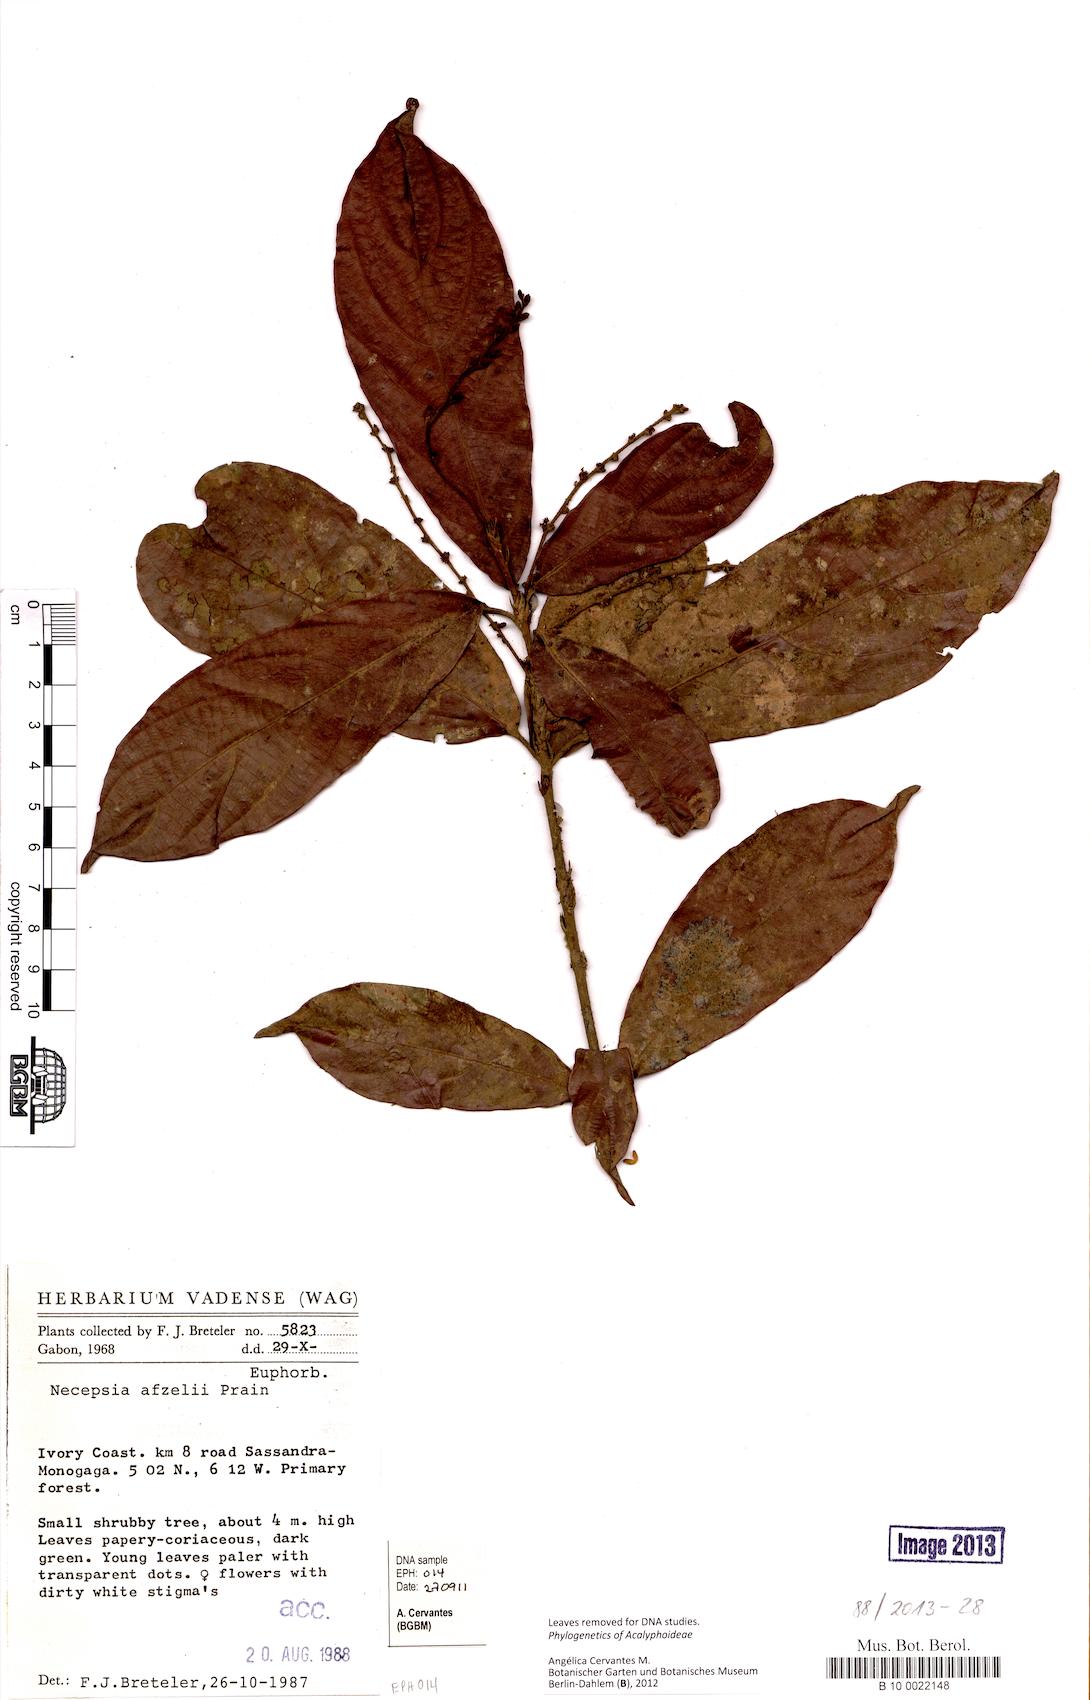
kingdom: Plantae
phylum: Tracheophyta
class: Magnoliopsida
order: Malpighiales
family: Euphorbiaceae
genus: Necepsia
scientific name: Necepsia afzelii
